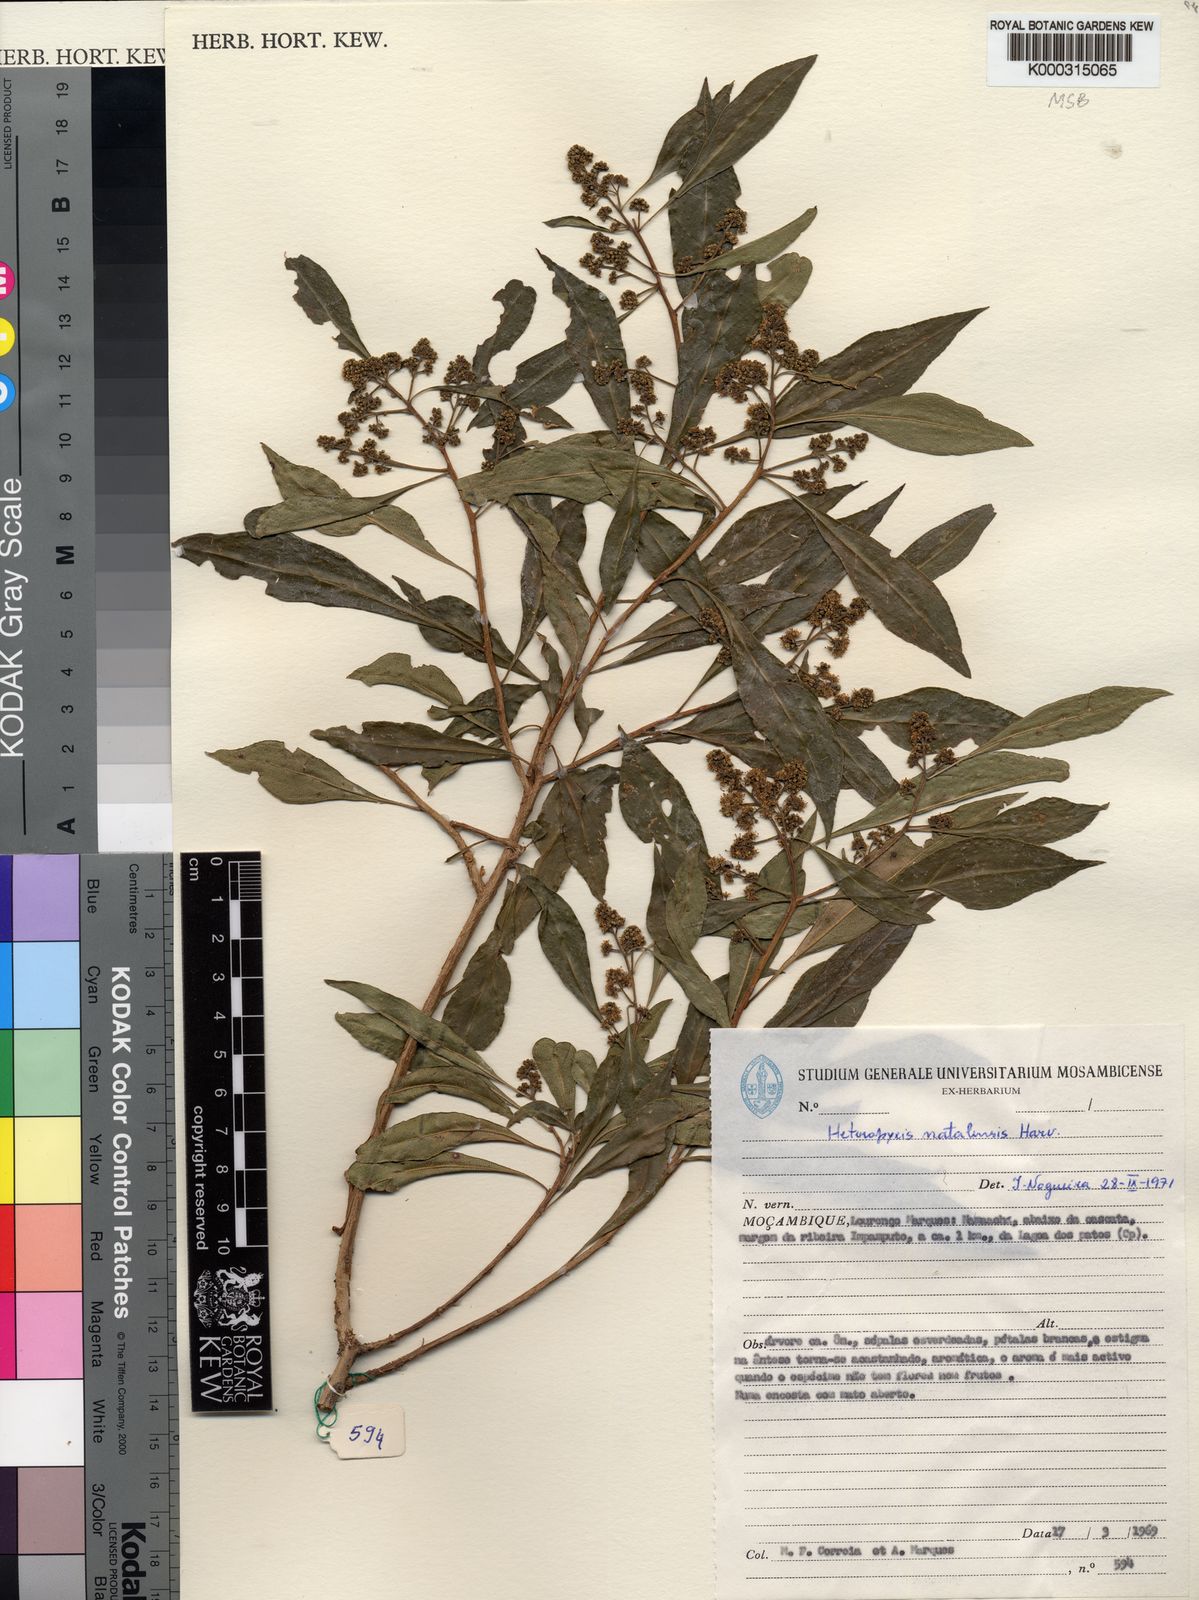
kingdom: Plantae
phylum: Tracheophyta
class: Magnoliopsida
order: Myrtales
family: Myrtaceae
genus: Heteropyxis
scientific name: Heteropyxis dehniae
